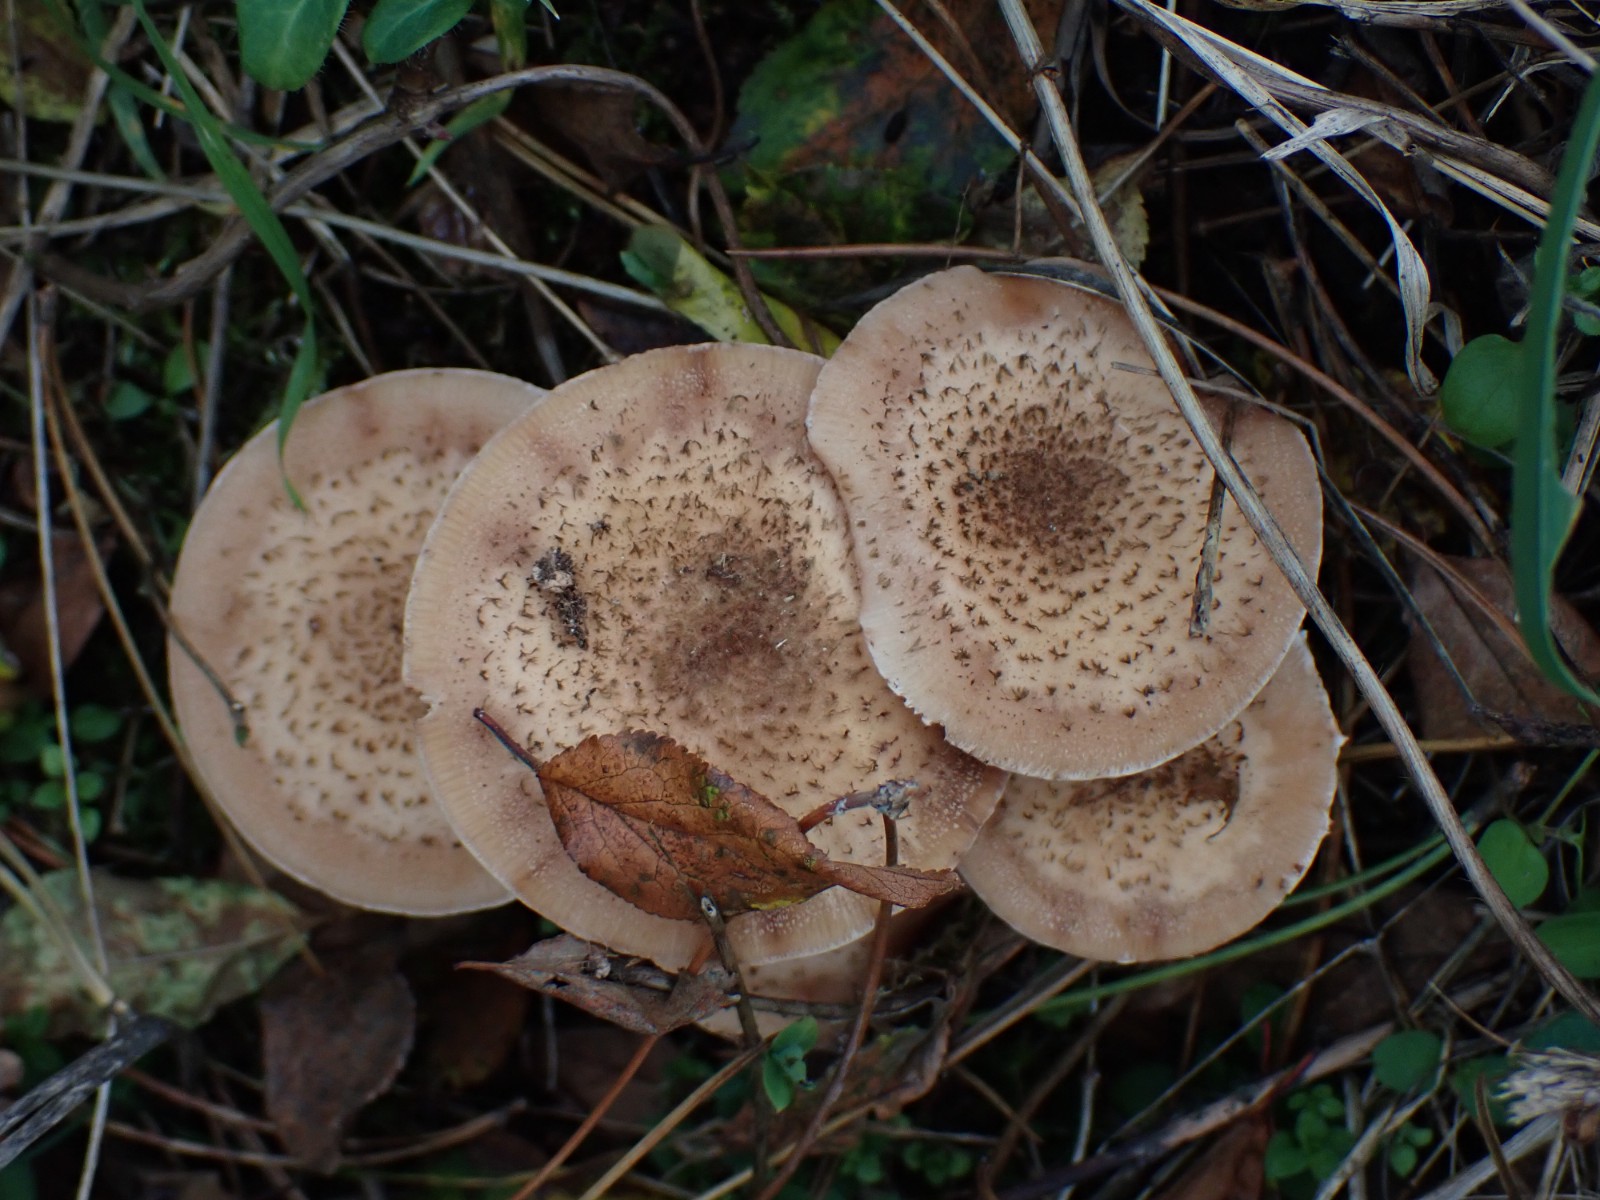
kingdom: Fungi
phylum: Basidiomycota
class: Agaricomycetes
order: Agaricales
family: Physalacriaceae
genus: Armillaria
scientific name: Armillaria ostoyae
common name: mørk honningsvamp
